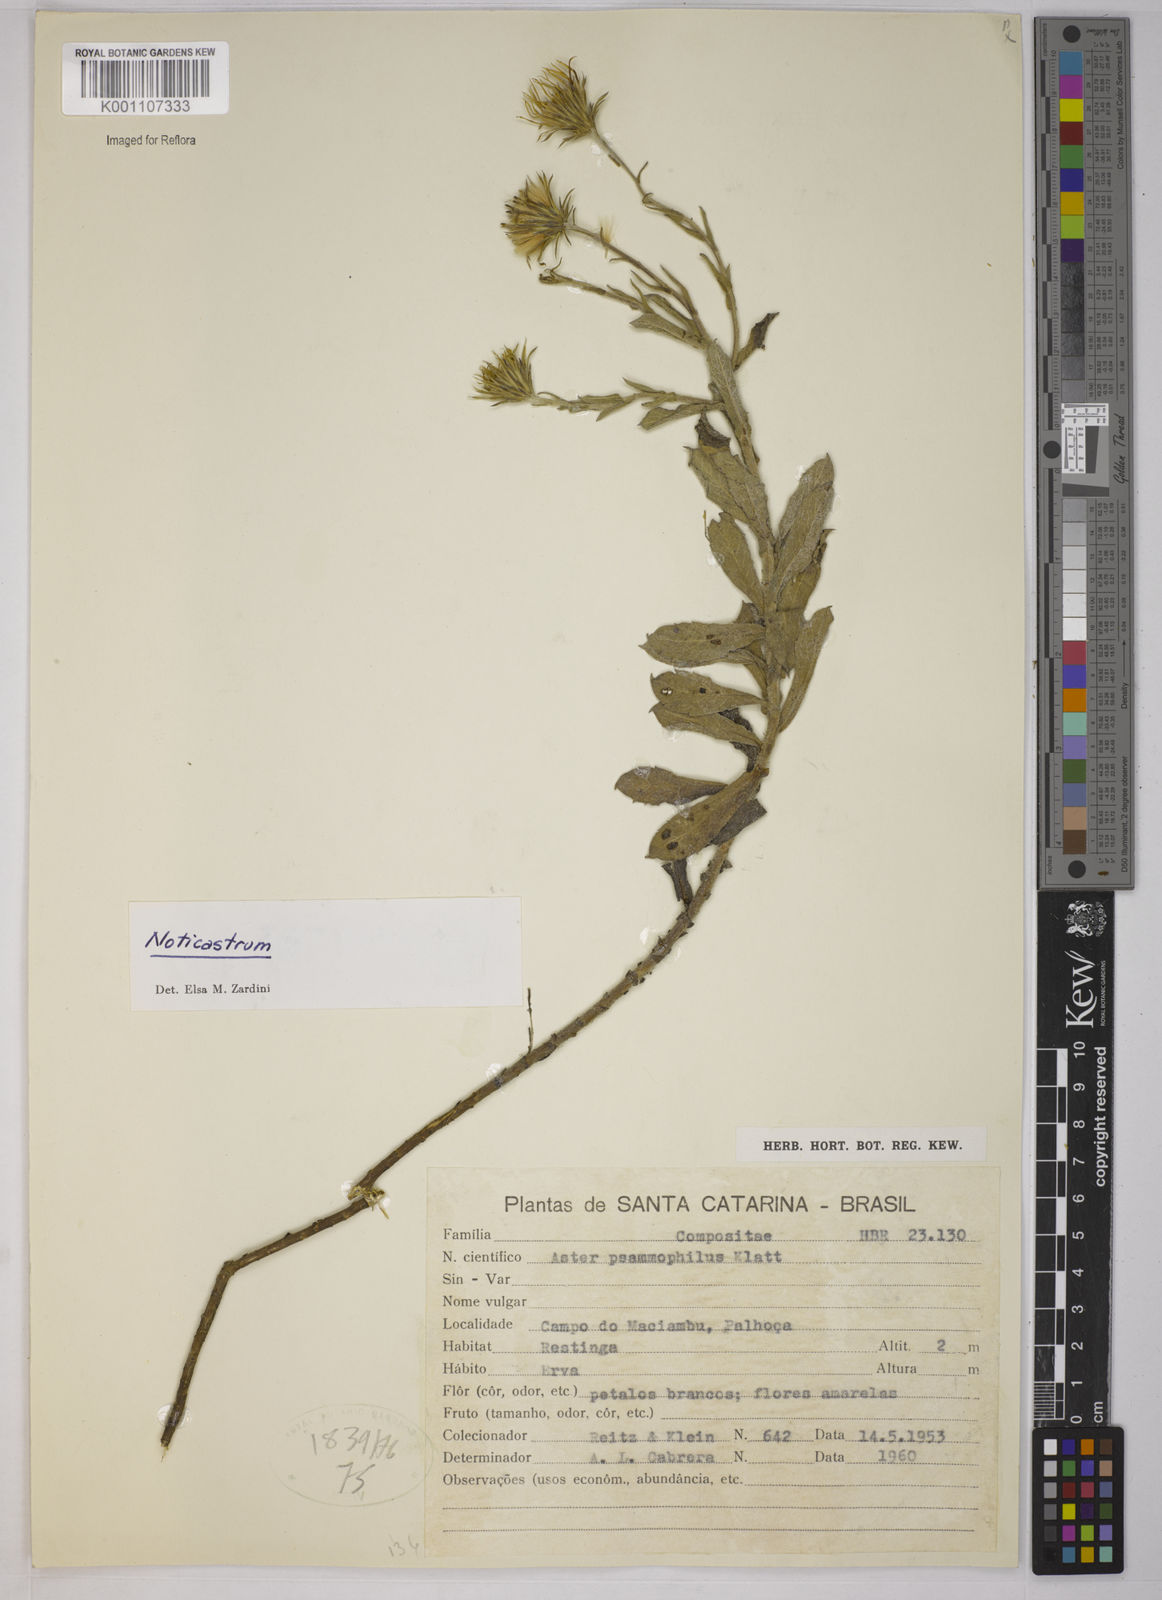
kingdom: Plantae
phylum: Tracheophyta
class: Magnoliopsida
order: Asterales
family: Asteraceae
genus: Noticastrum
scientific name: Noticastrum malmei
